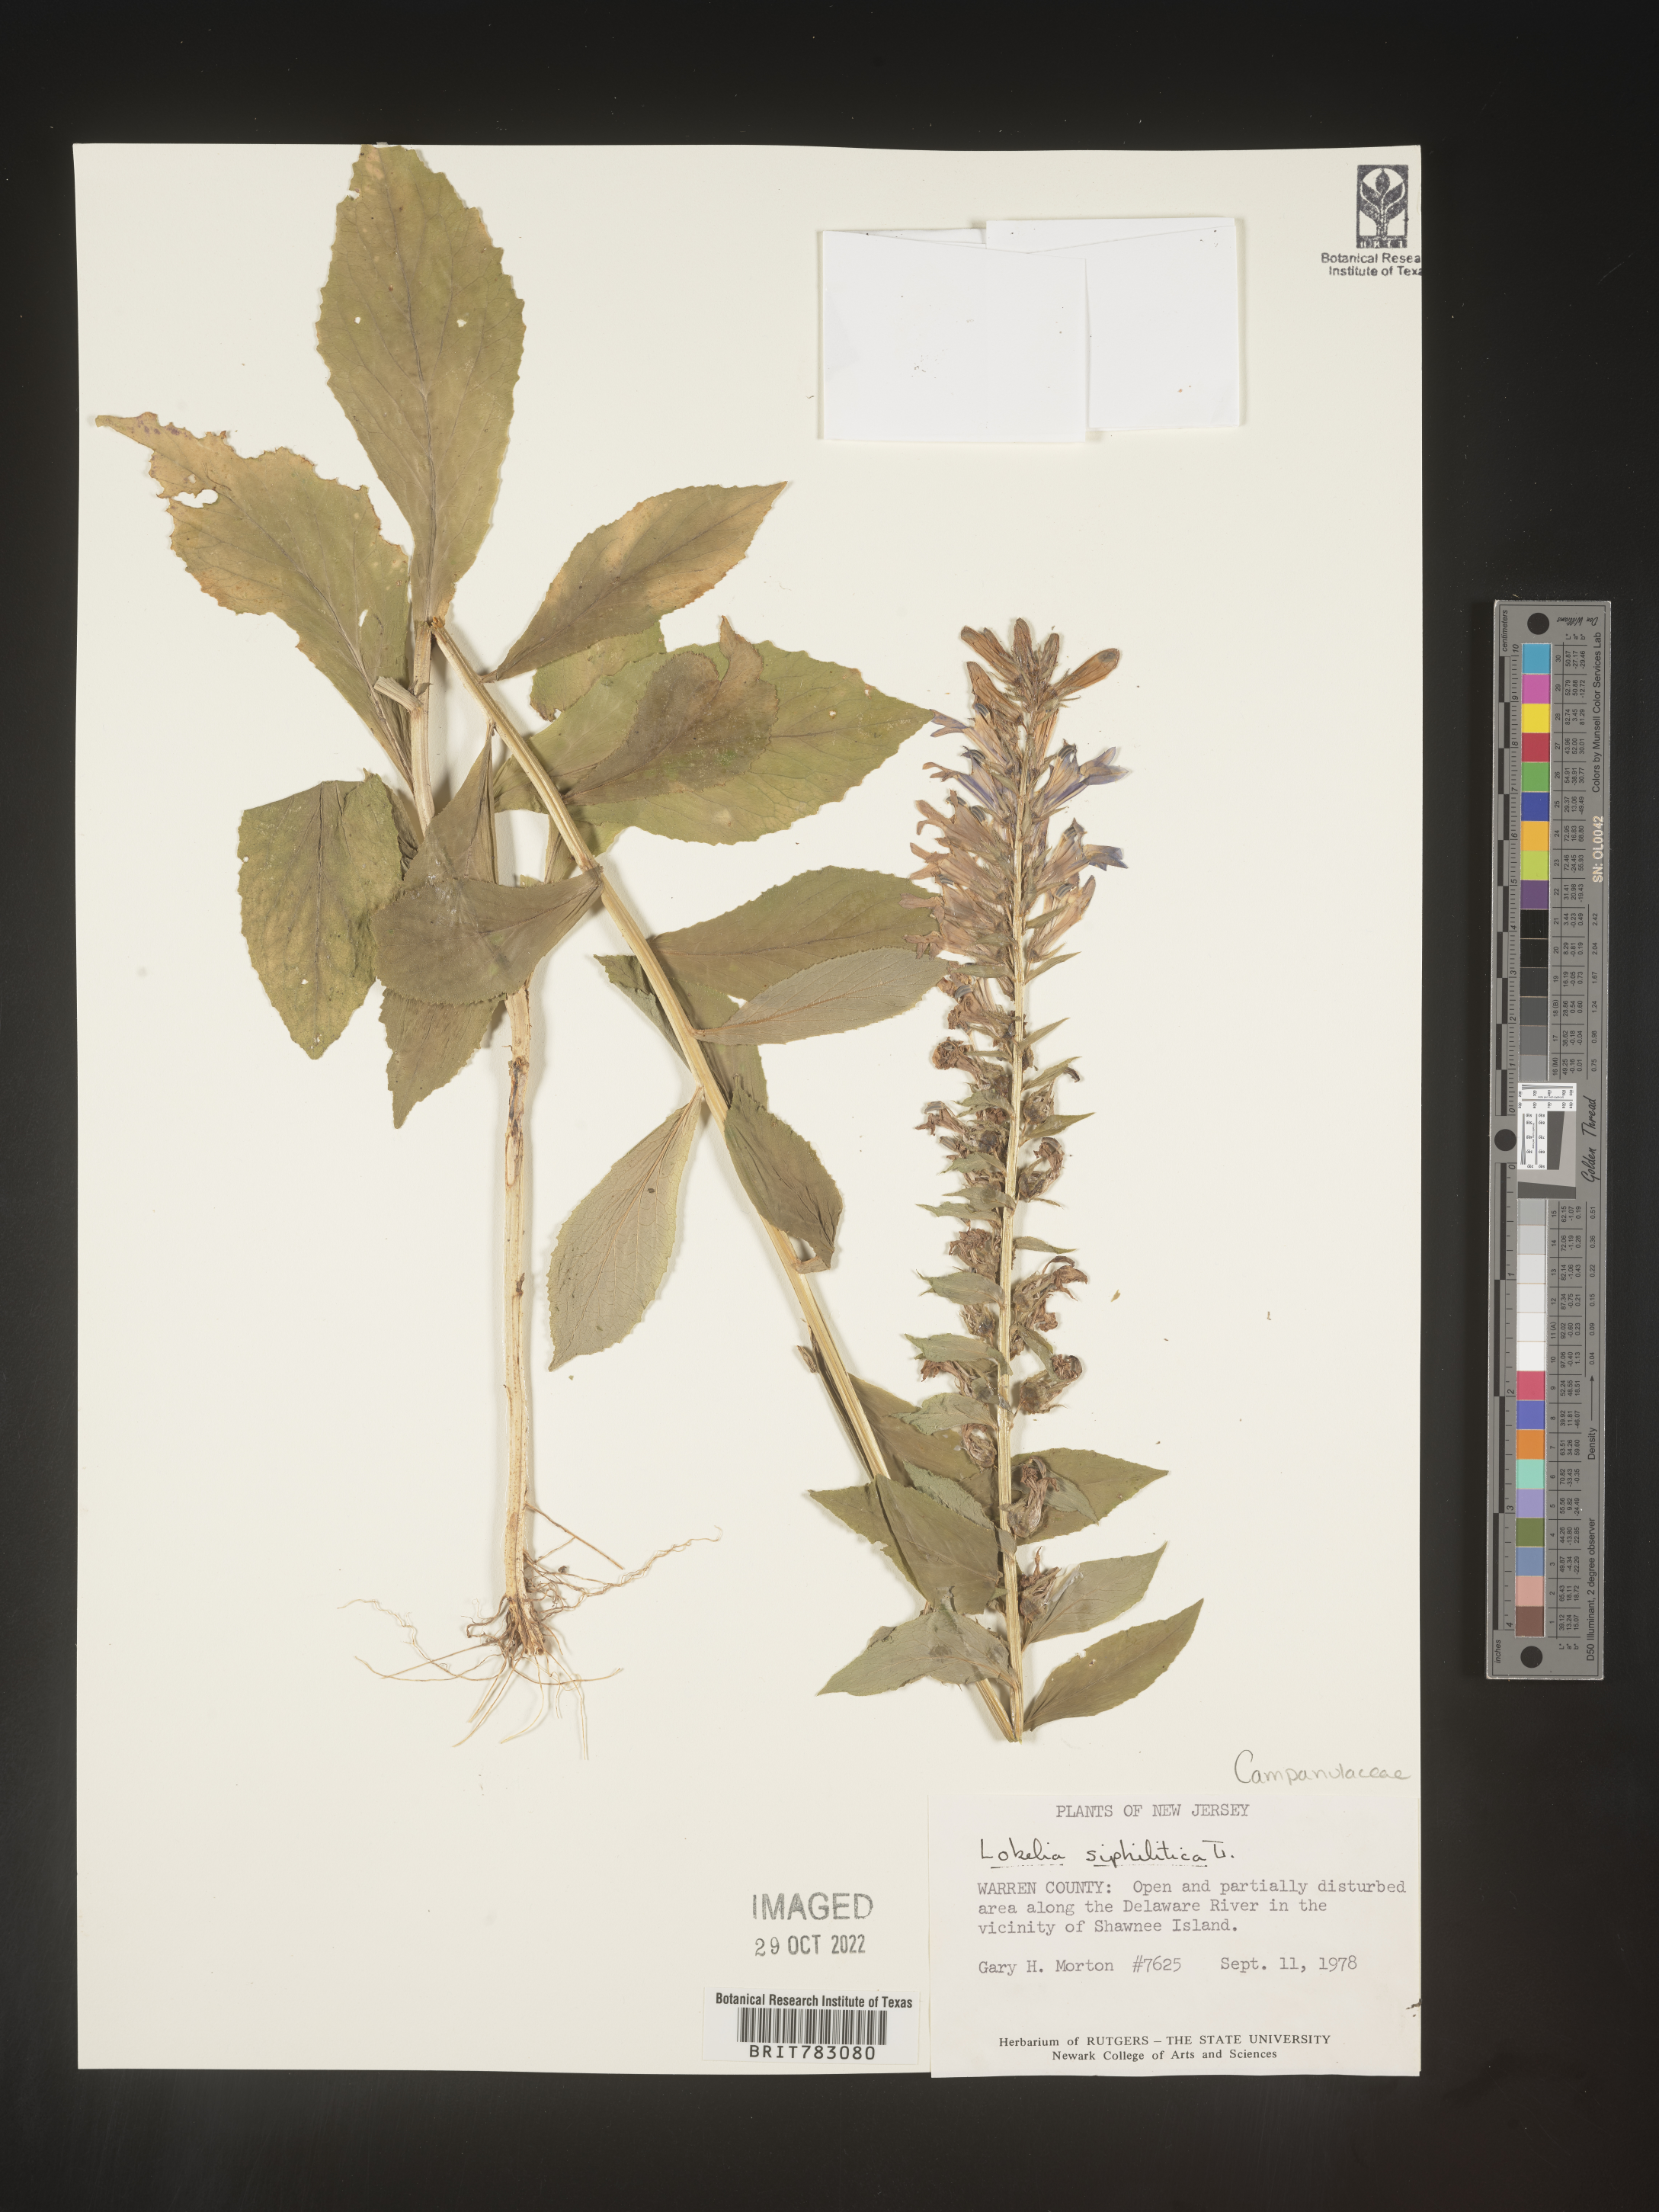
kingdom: Plantae
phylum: Tracheophyta
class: Magnoliopsida
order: Asterales
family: Campanulaceae
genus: Lobelia
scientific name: Lobelia siphilitica
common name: Great lobelia
